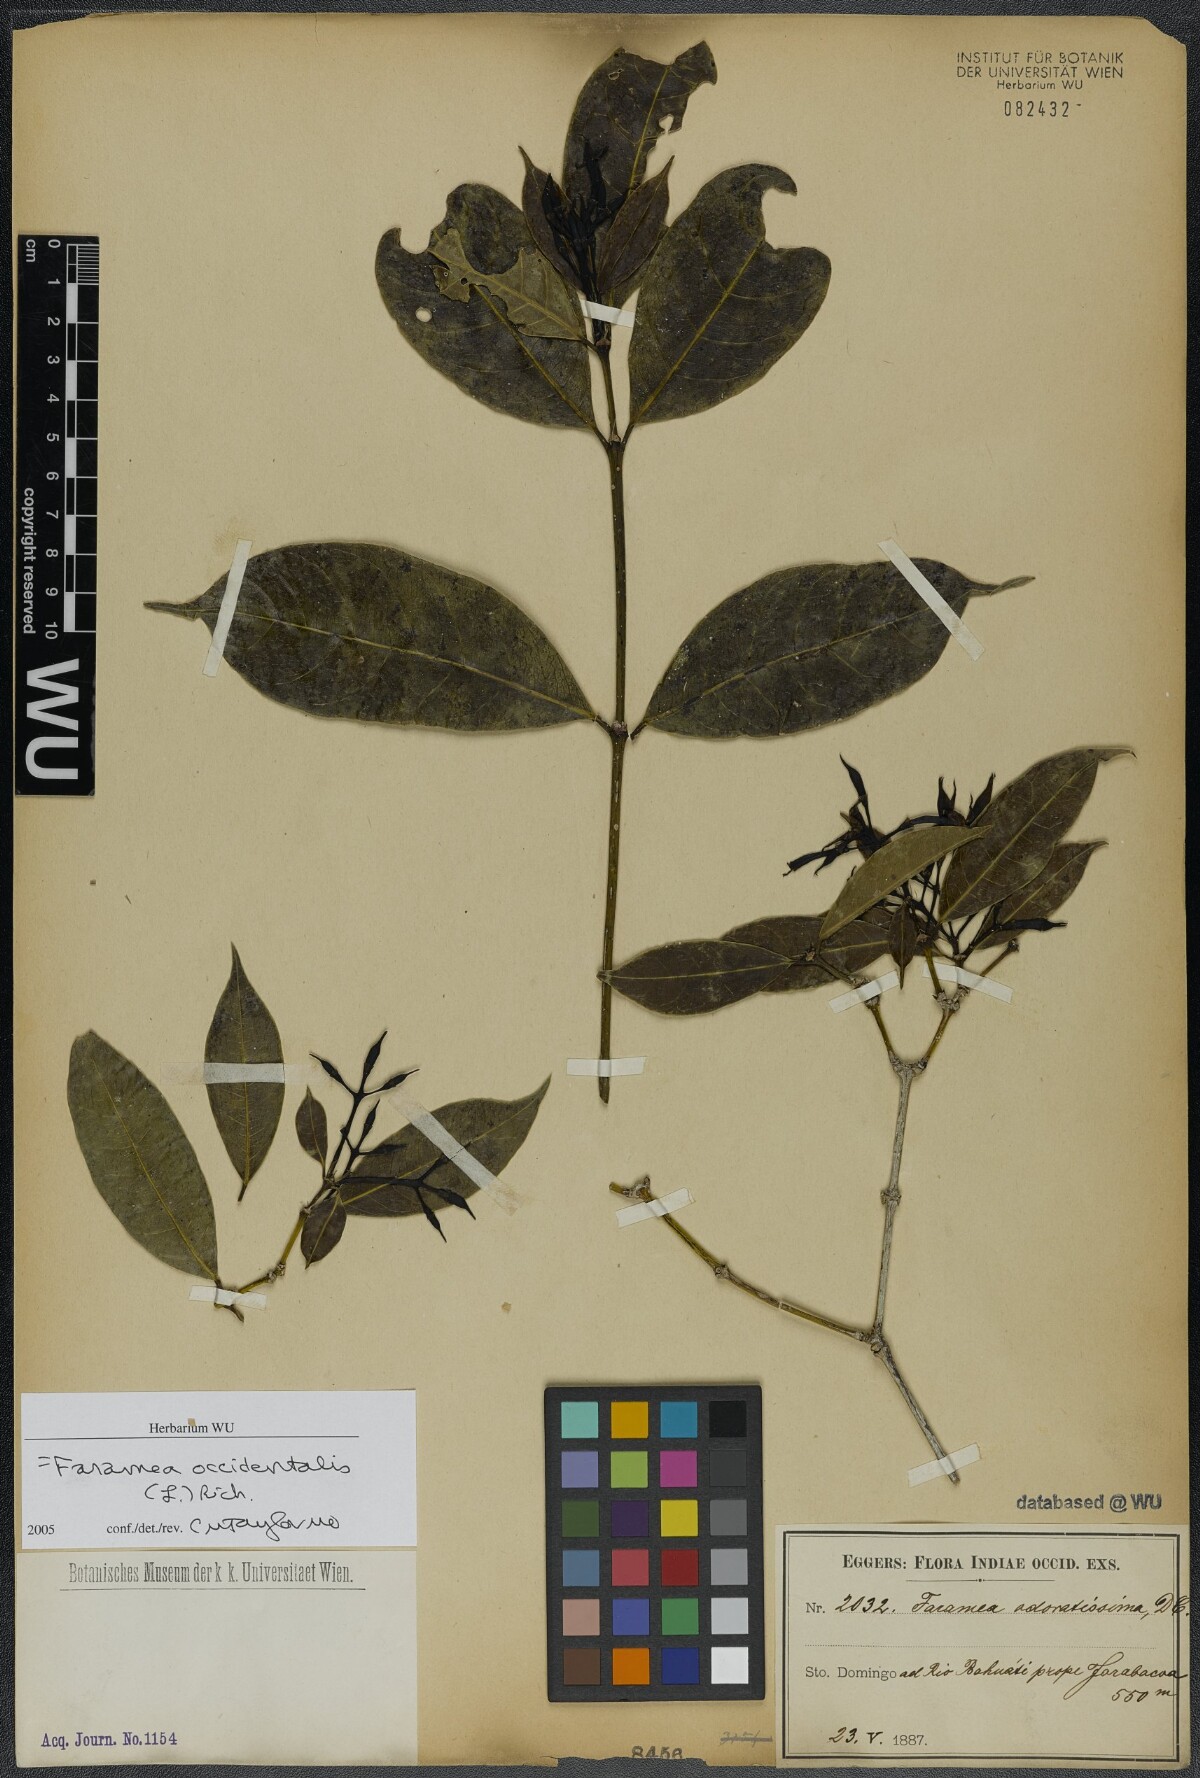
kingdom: Plantae
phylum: Tracheophyta
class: Magnoliopsida
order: Gentianales
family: Rubiaceae
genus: Faramea
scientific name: Faramea occidentalis
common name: False coffee
